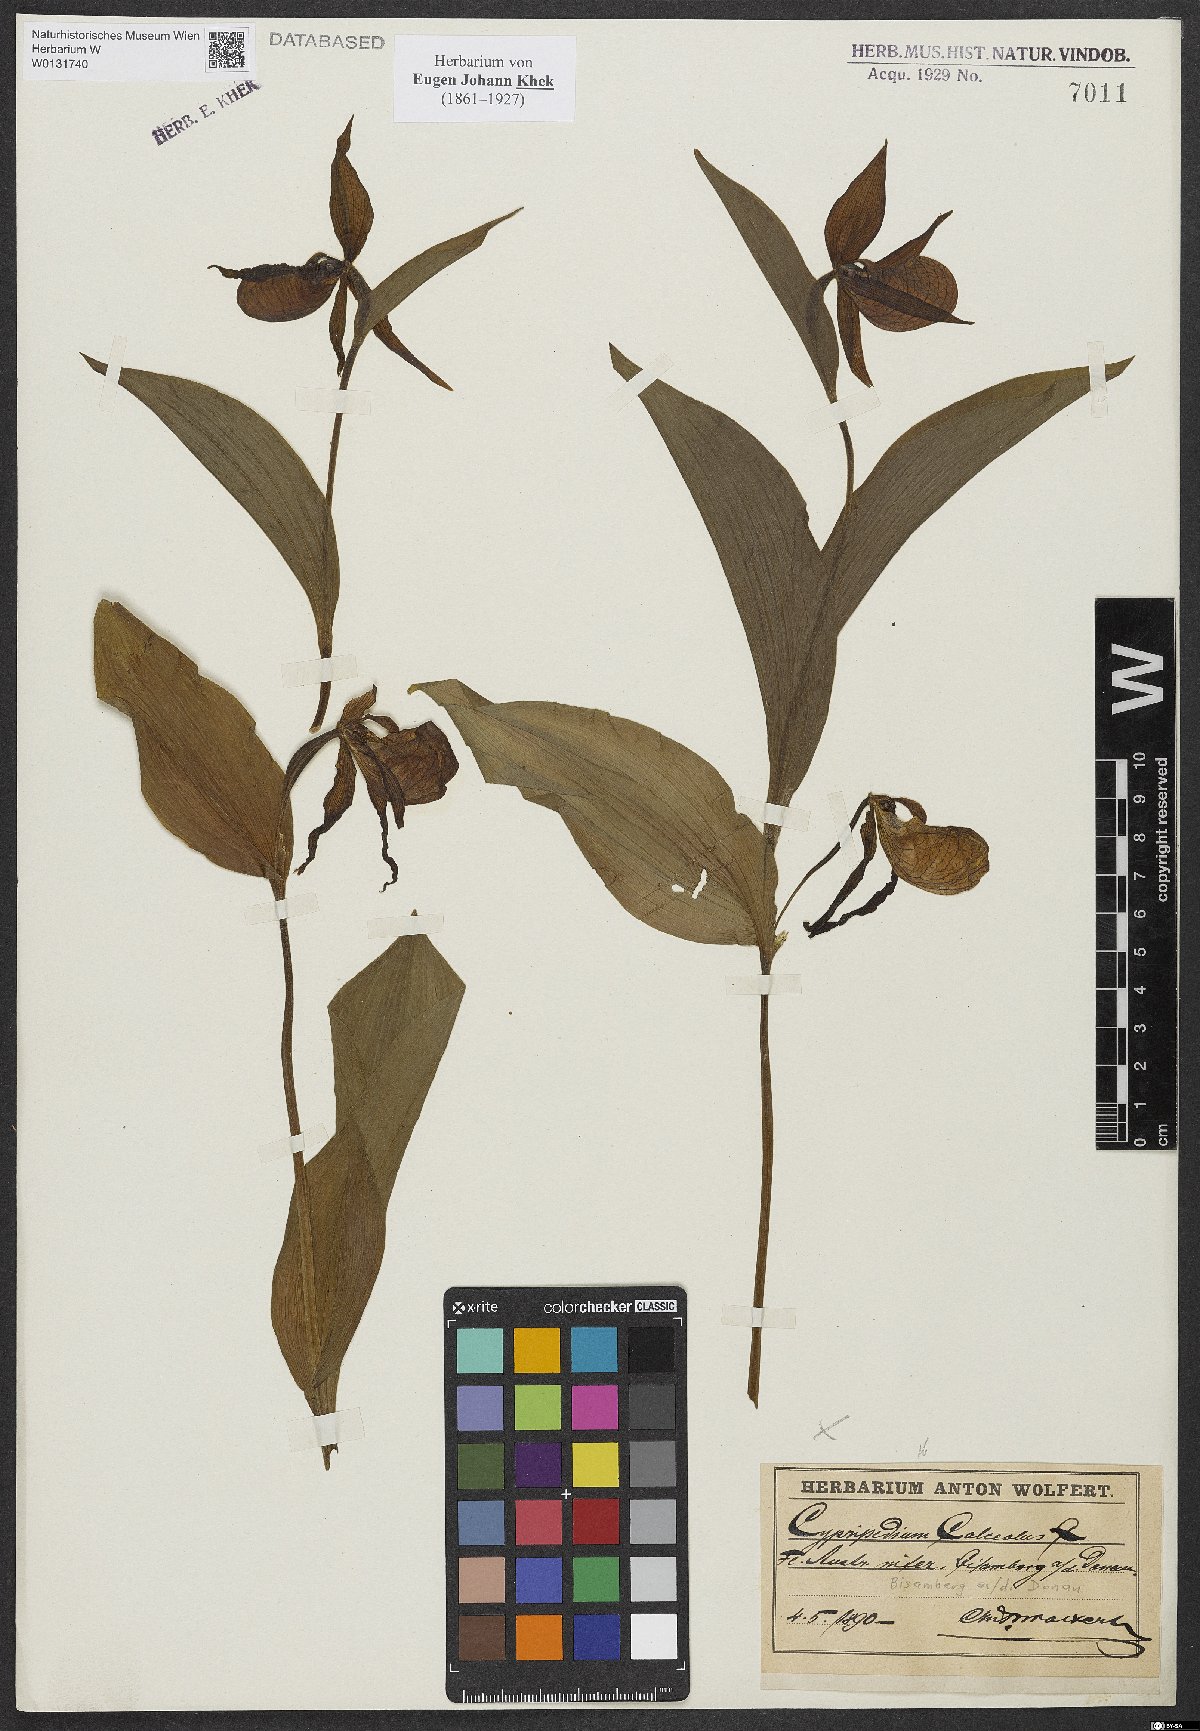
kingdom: Plantae
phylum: Tracheophyta
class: Liliopsida
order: Asparagales
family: Orchidaceae
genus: Cypripedium
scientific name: Cypripedium calceolus
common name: Lady's-slipper
